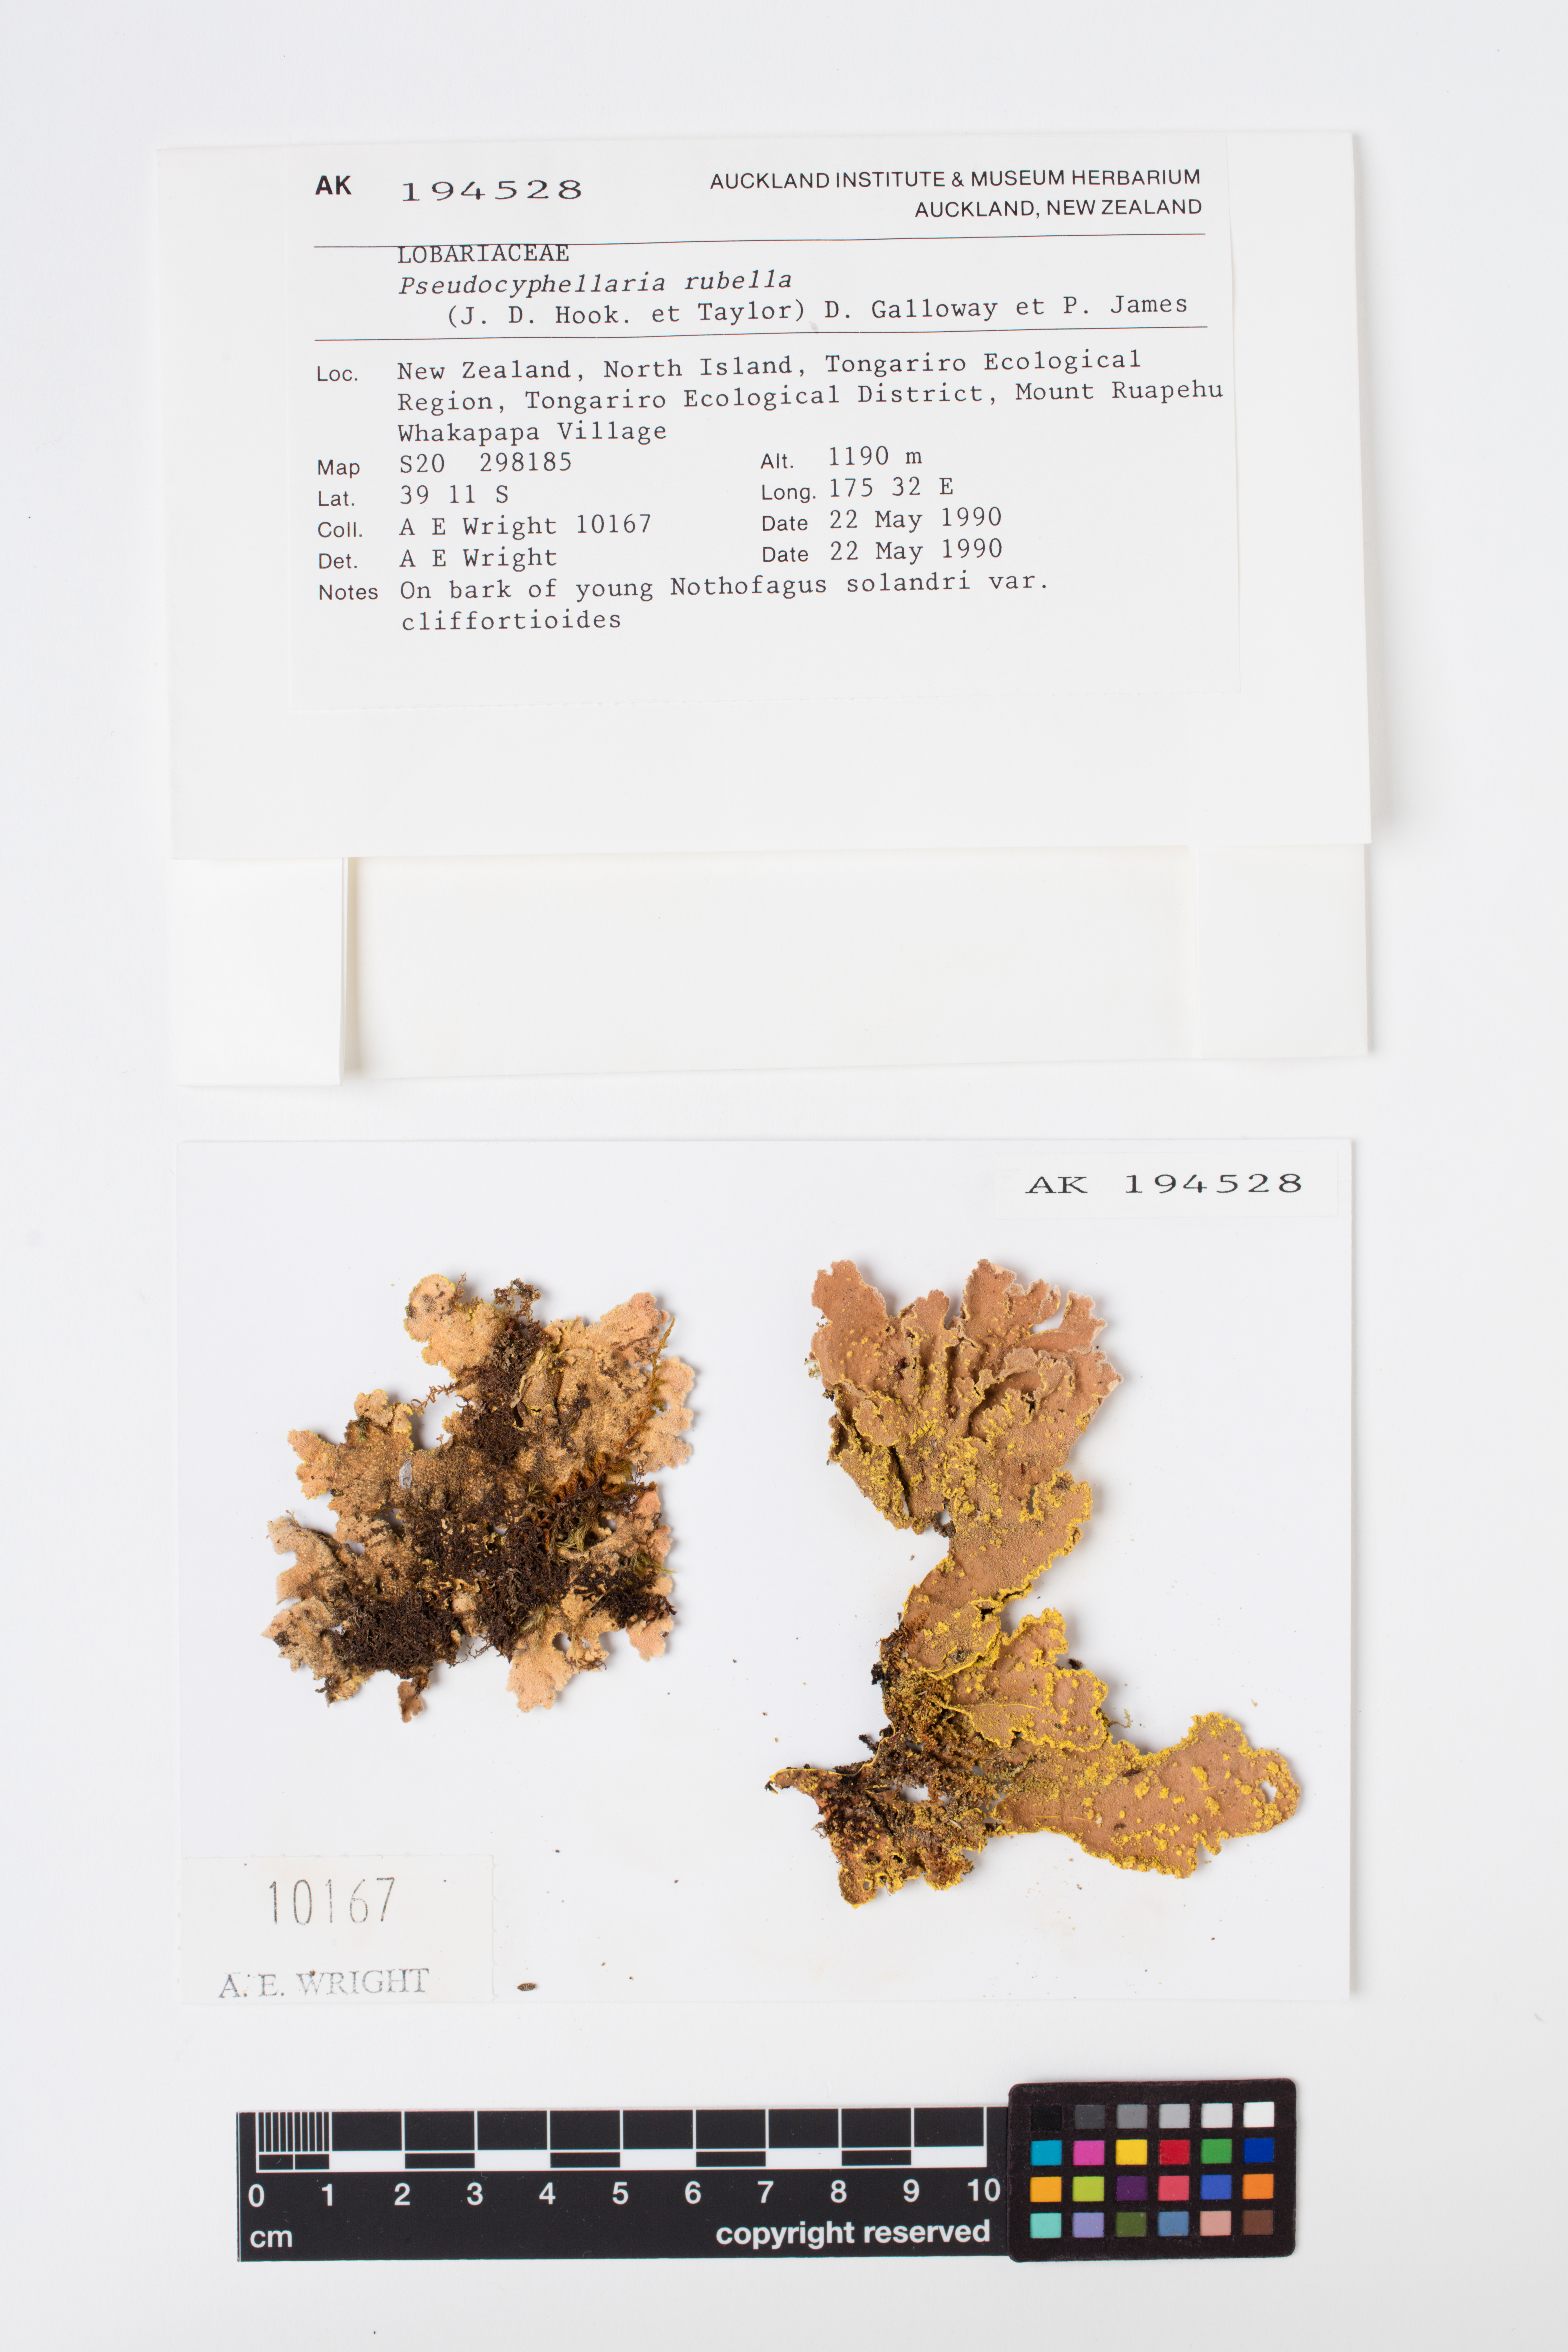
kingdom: Fungi
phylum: Ascomycota
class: Lecanoromycetes
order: Peltigerales
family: Lobariaceae
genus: Pseudocyphellaria
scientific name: Pseudocyphellaria rubella
